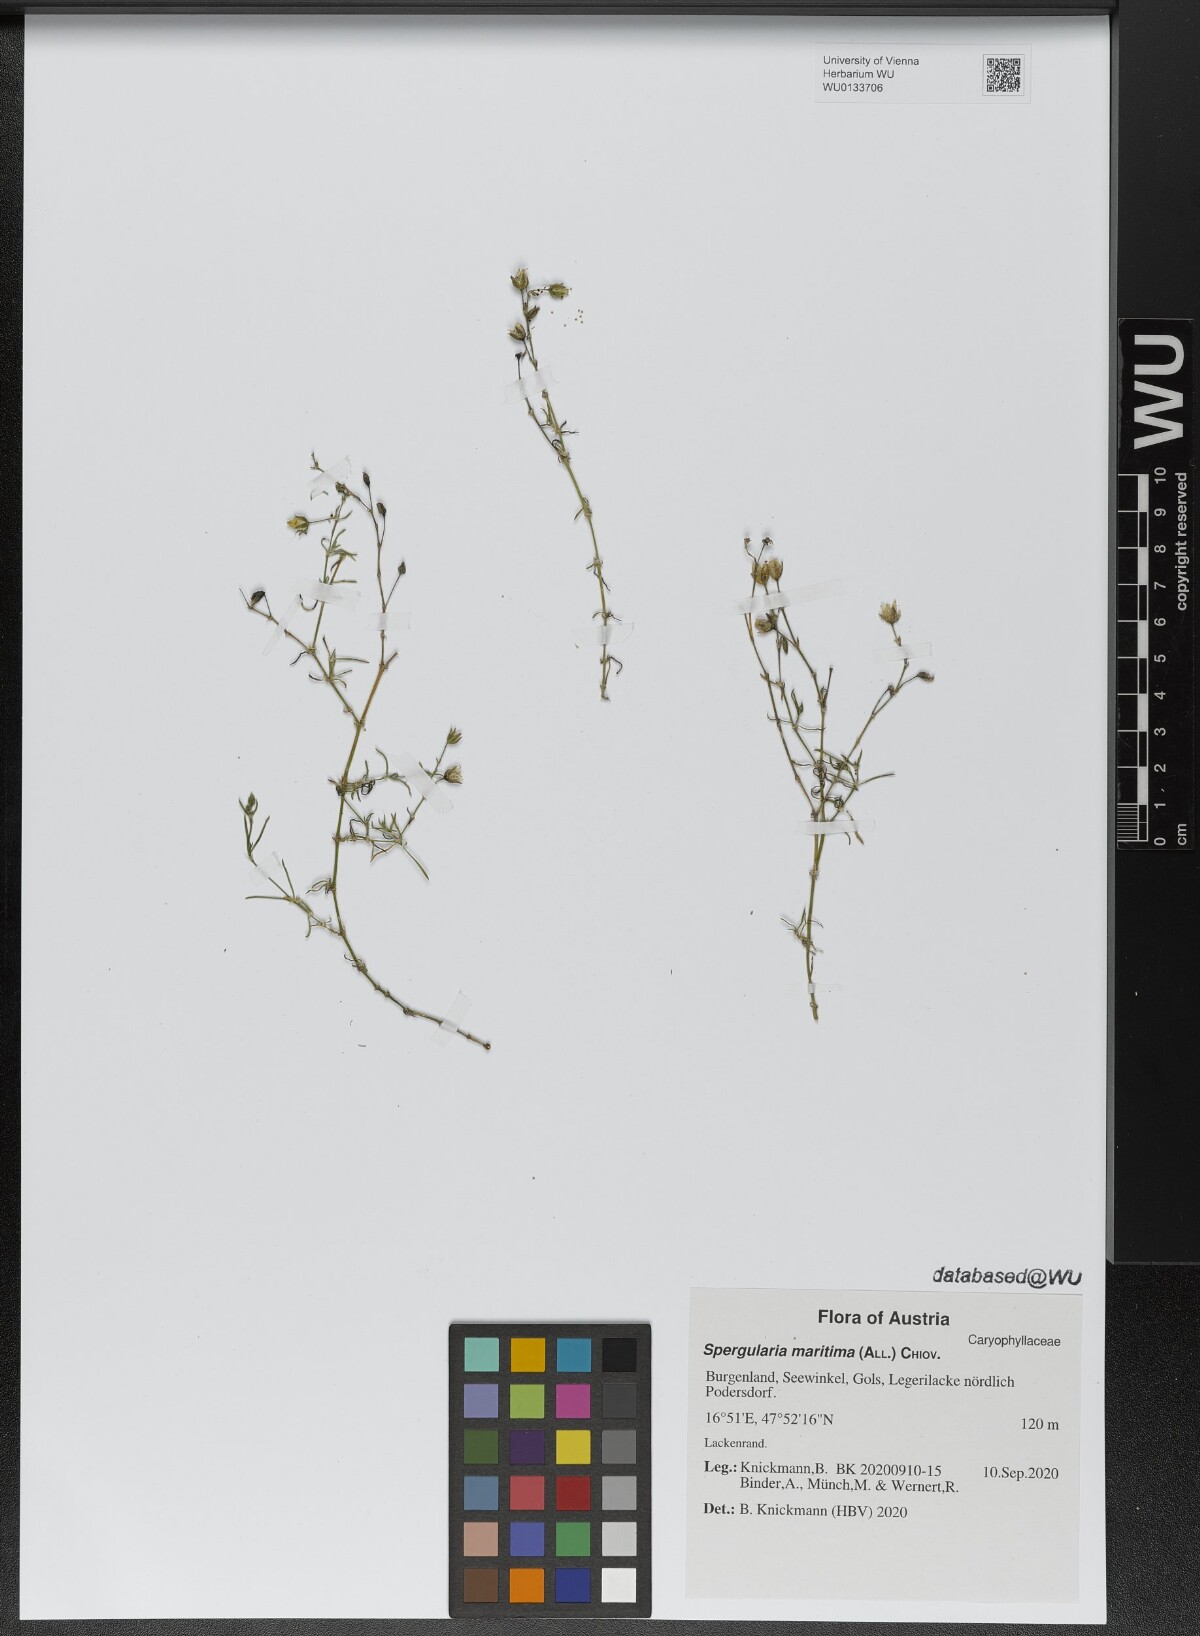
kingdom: Plantae
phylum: Tracheophyta
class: Magnoliopsida
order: Caryophyllales
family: Caryophyllaceae
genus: Spergularia
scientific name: Spergularia media
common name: Greater sea-spurrey
